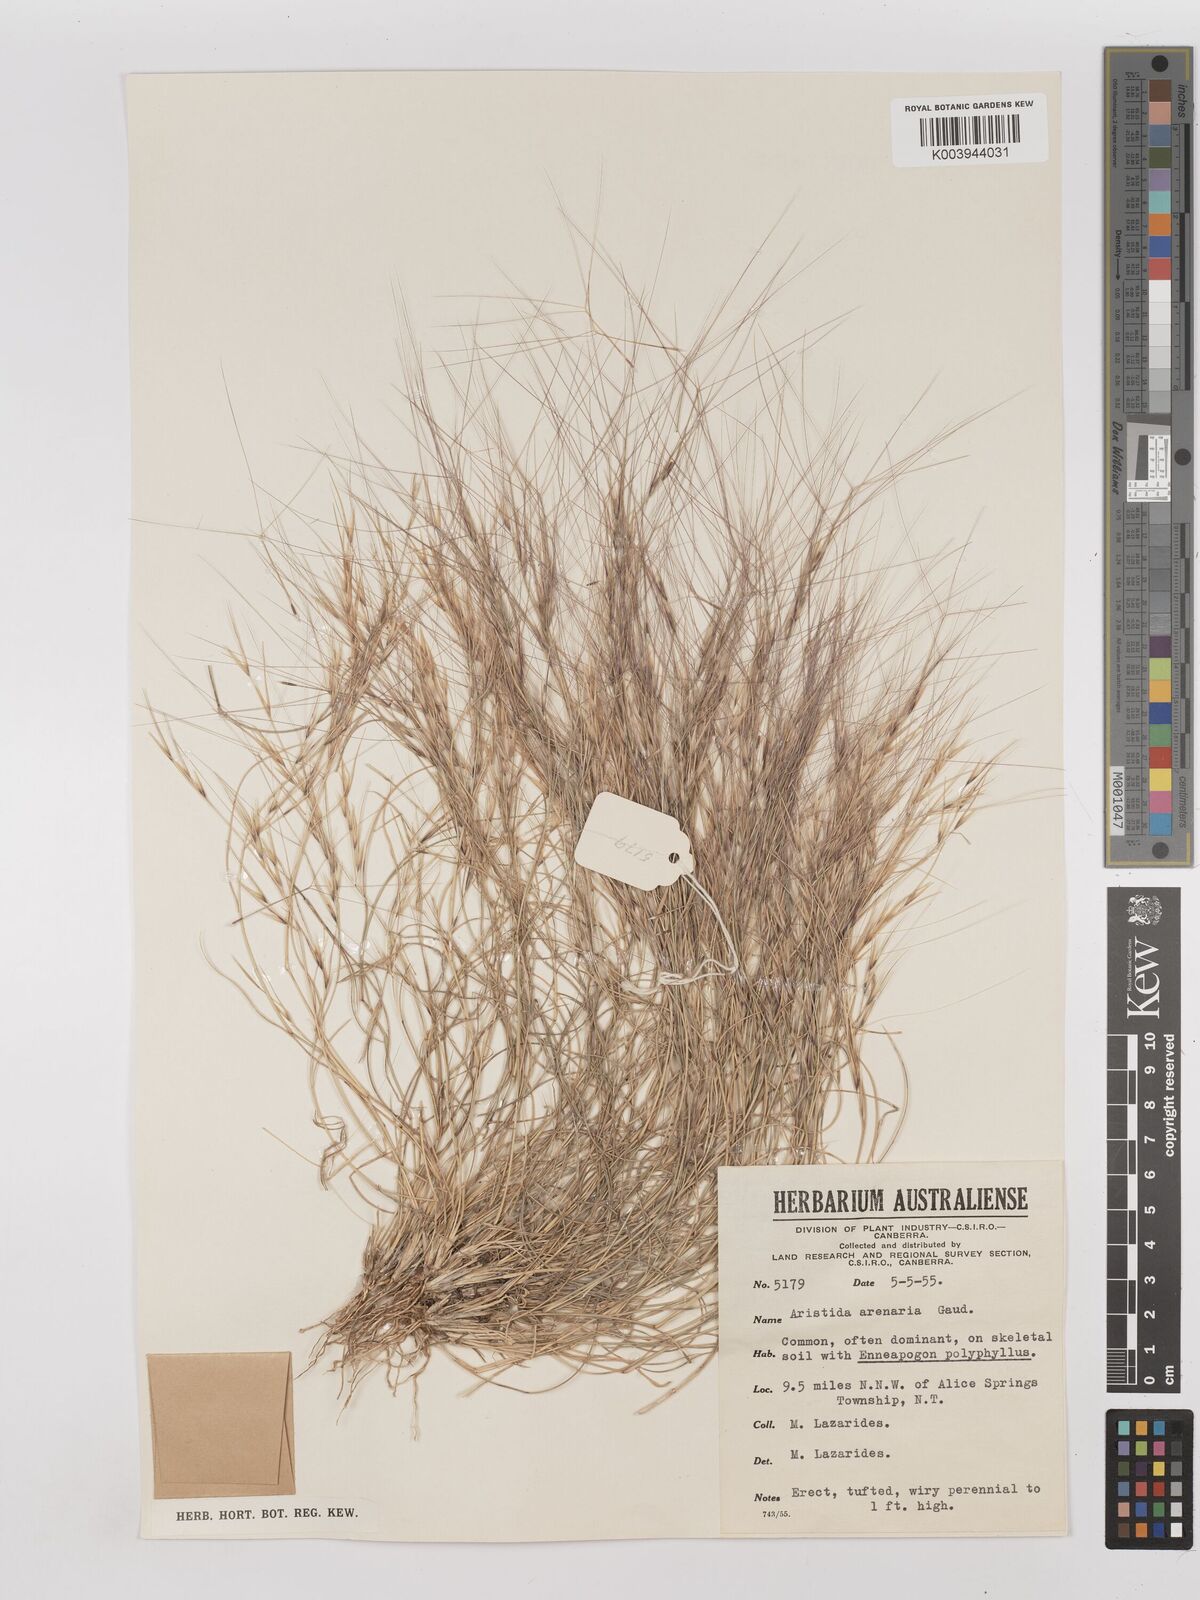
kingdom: Plantae
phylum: Tracheophyta
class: Liliopsida
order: Poales
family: Poaceae
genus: Aristida
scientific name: Aristida contorta
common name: Bunch kerosene grass
